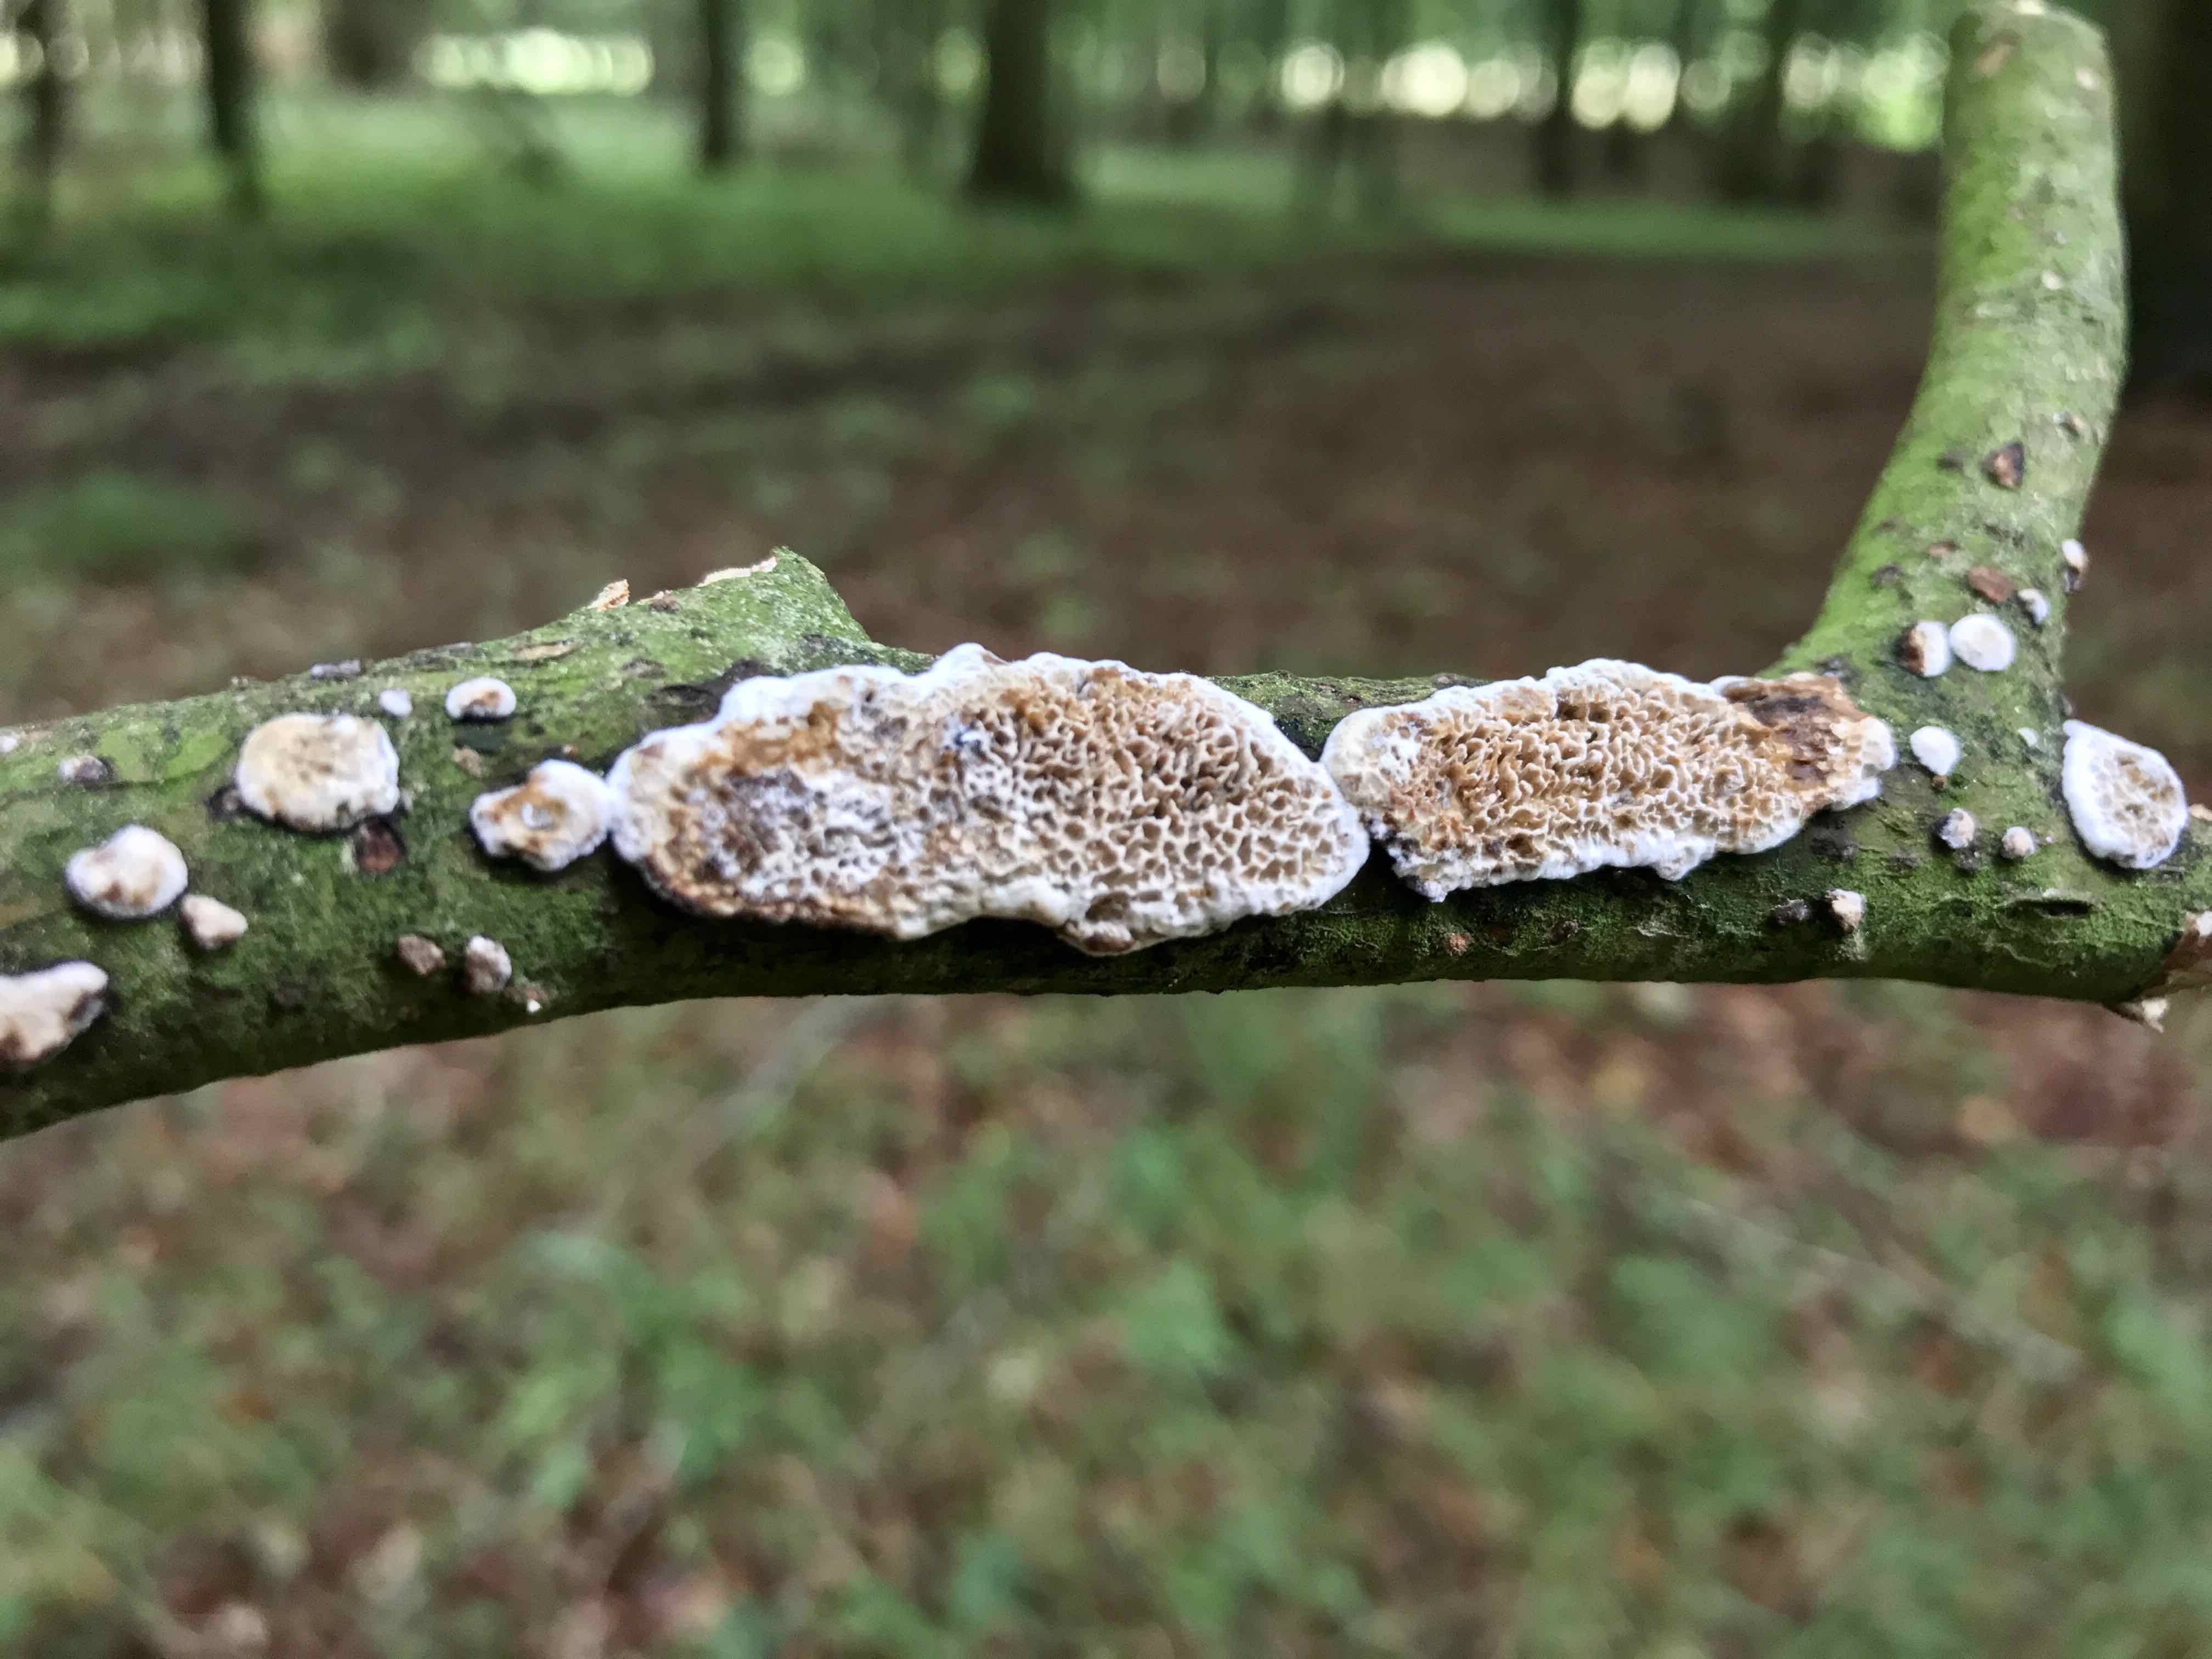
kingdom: Fungi
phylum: Basidiomycota
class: Agaricomycetes
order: Polyporales
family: Polyporaceae
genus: Podofomes
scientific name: Podofomes mollis
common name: blød begporesvamp
